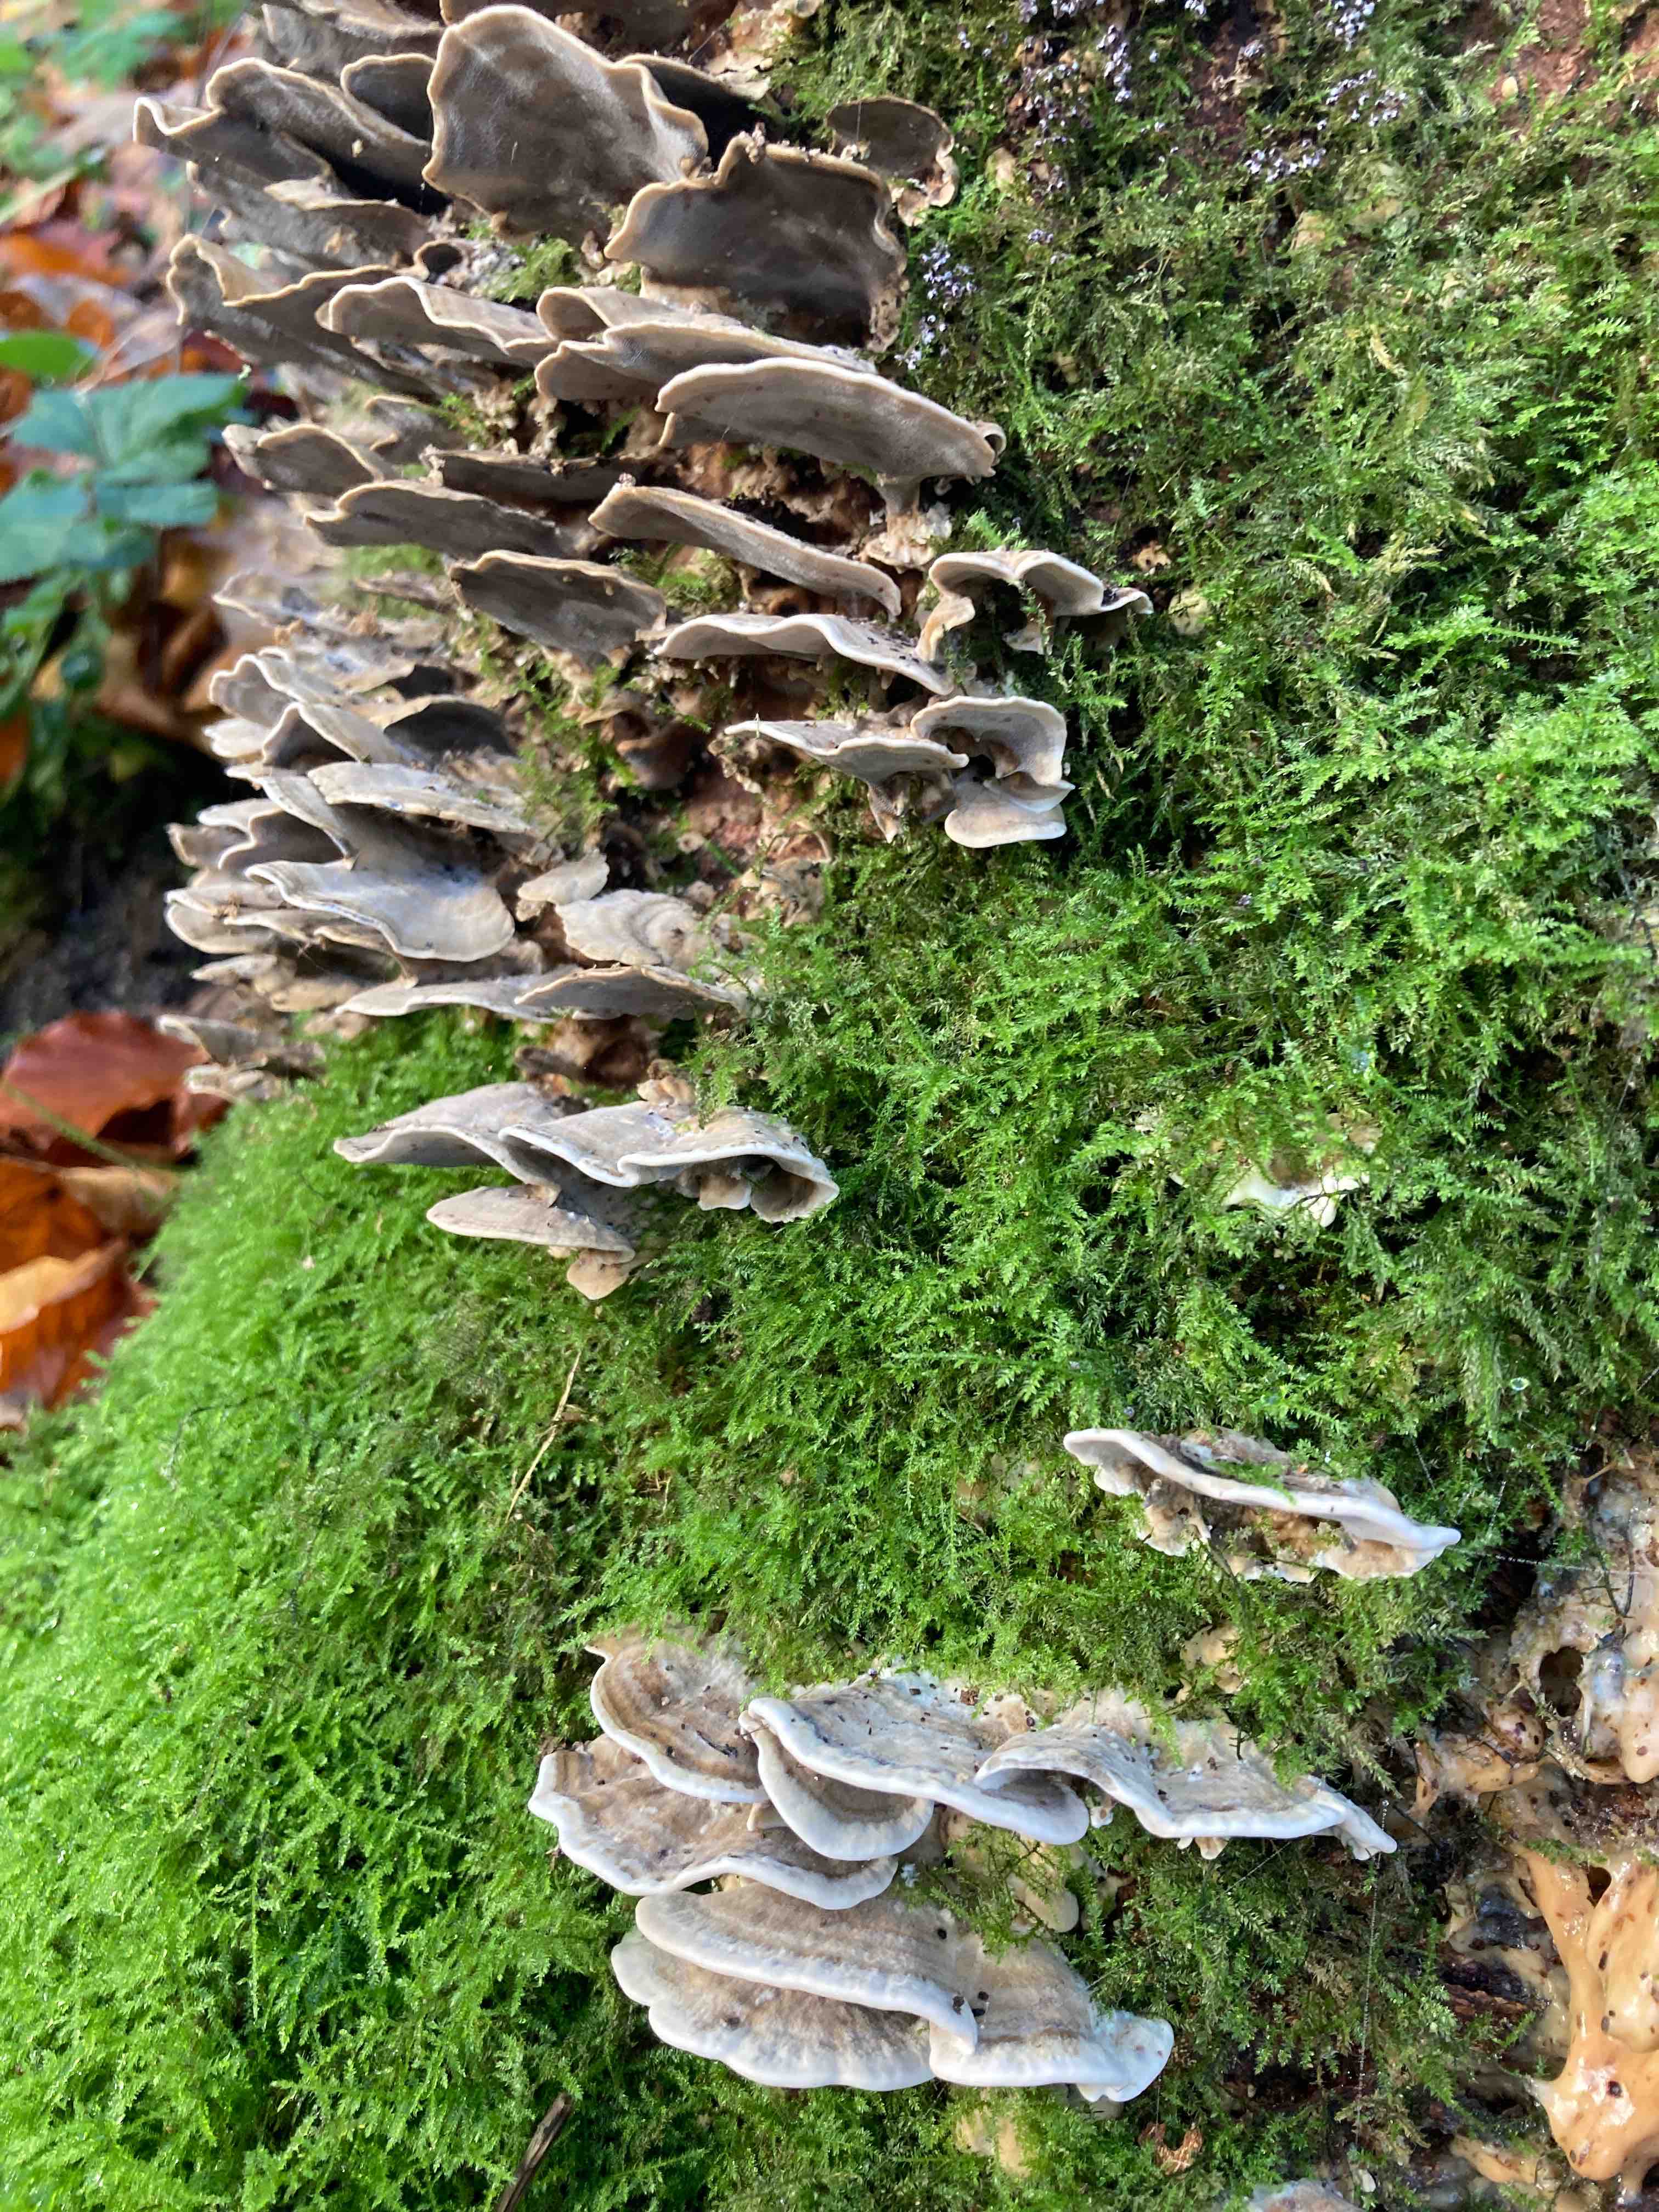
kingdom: Fungi
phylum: Basidiomycota
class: Agaricomycetes
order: Polyporales
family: Phanerochaetaceae
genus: Bjerkandera
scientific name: Bjerkandera adusta
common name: sveden sodporesvamp
